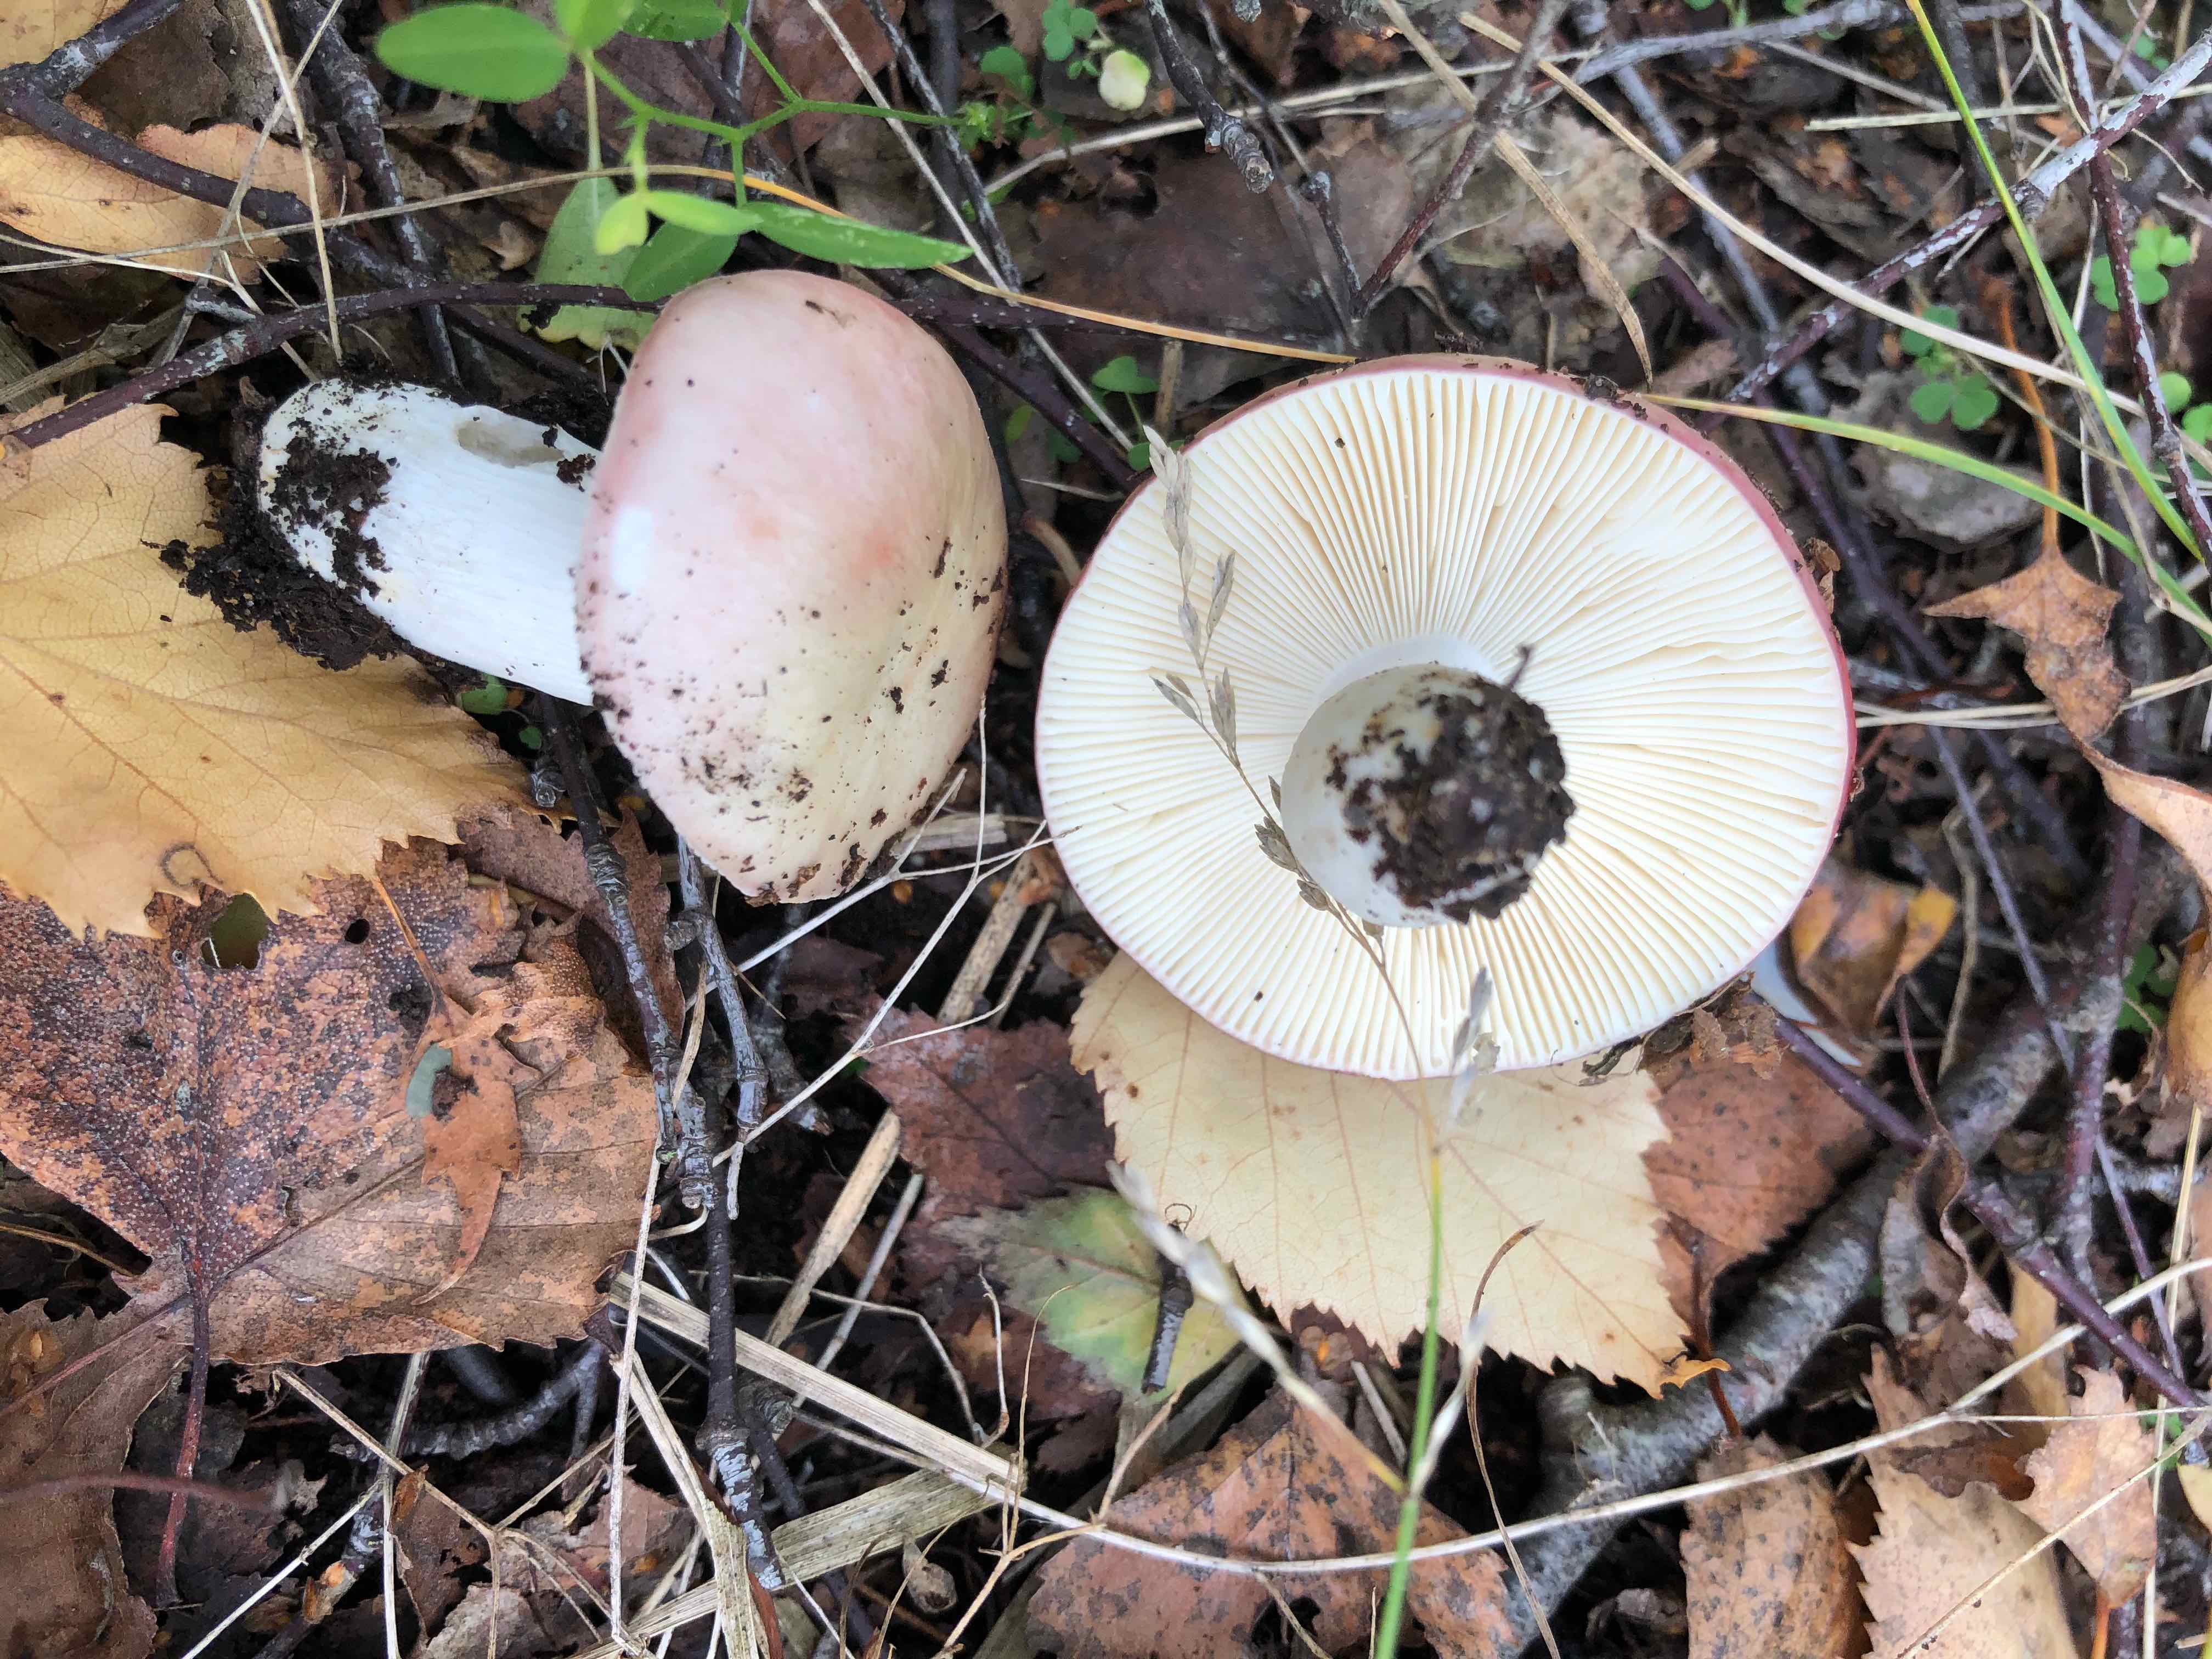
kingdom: Fungi
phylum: Basidiomycota
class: Agaricomycetes
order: Russulales
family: Russulaceae
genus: Russula
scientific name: Russula depallens
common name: falmende skørhat
